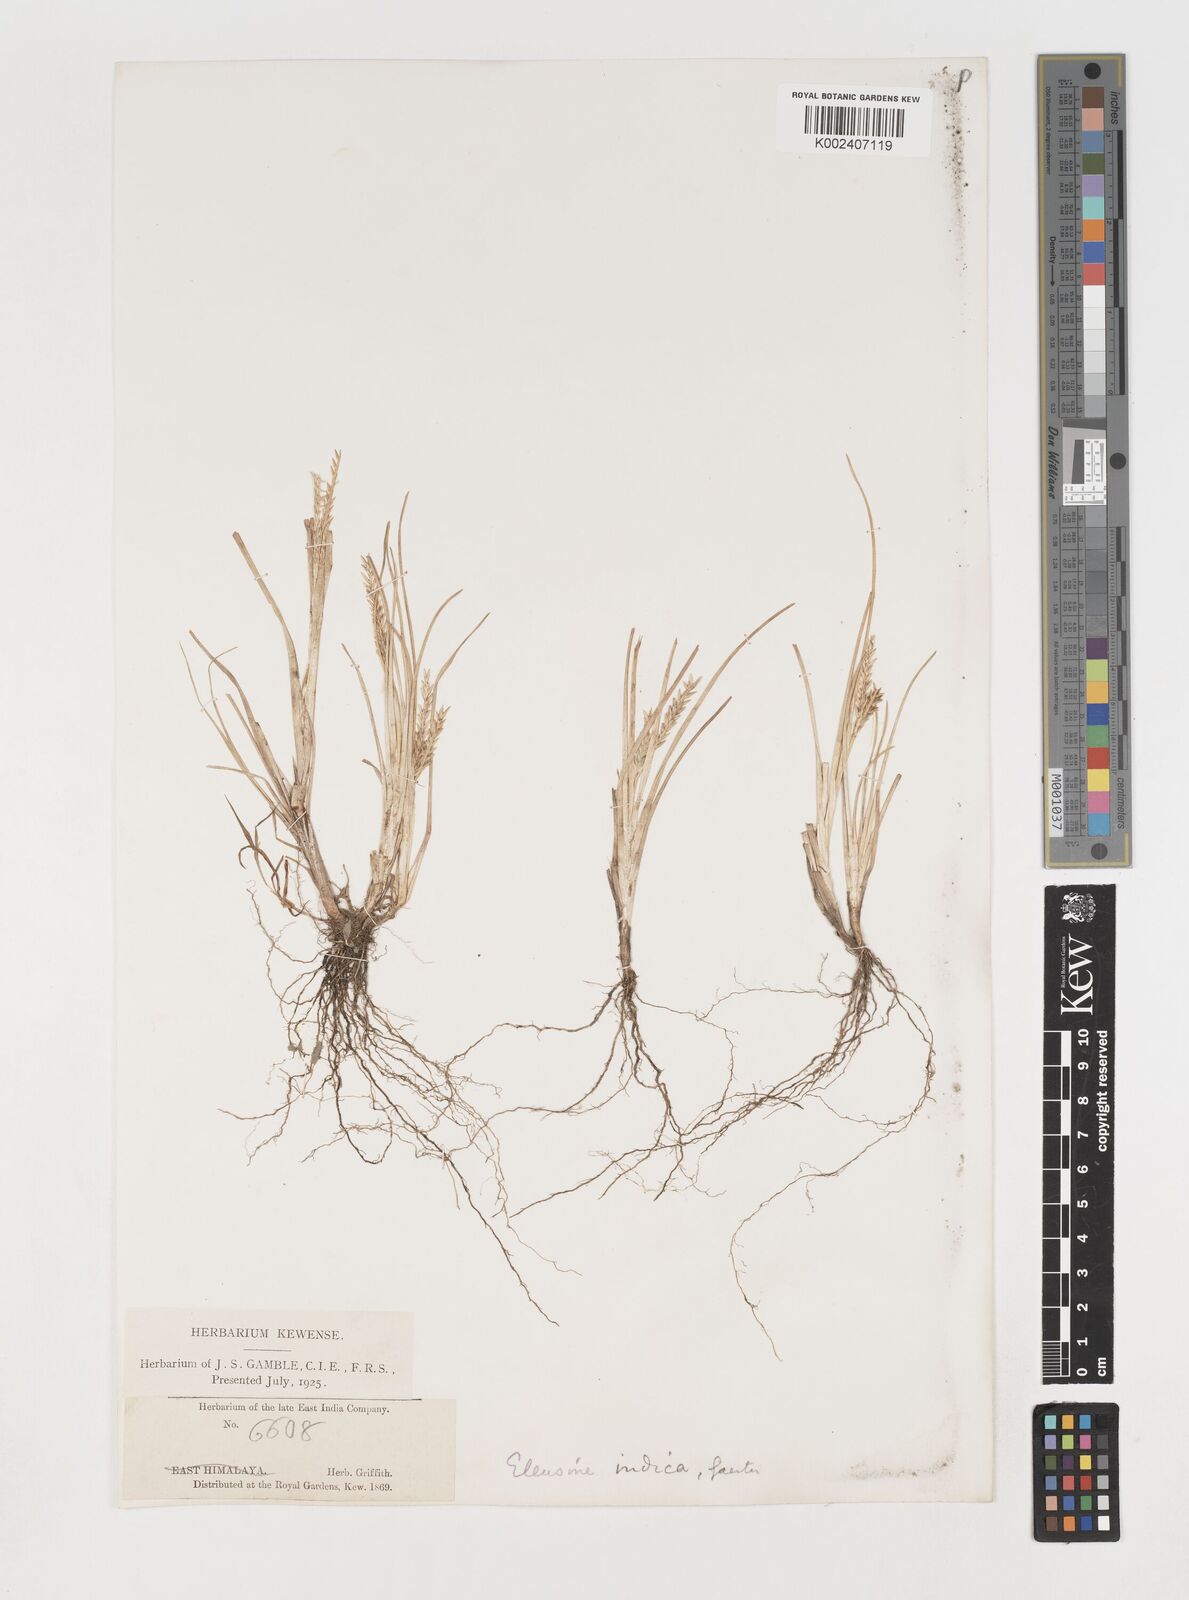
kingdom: Plantae
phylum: Tracheophyta
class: Liliopsida
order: Poales
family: Poaceae
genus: Eleusine
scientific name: Eleusine indica
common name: Yard-grass
